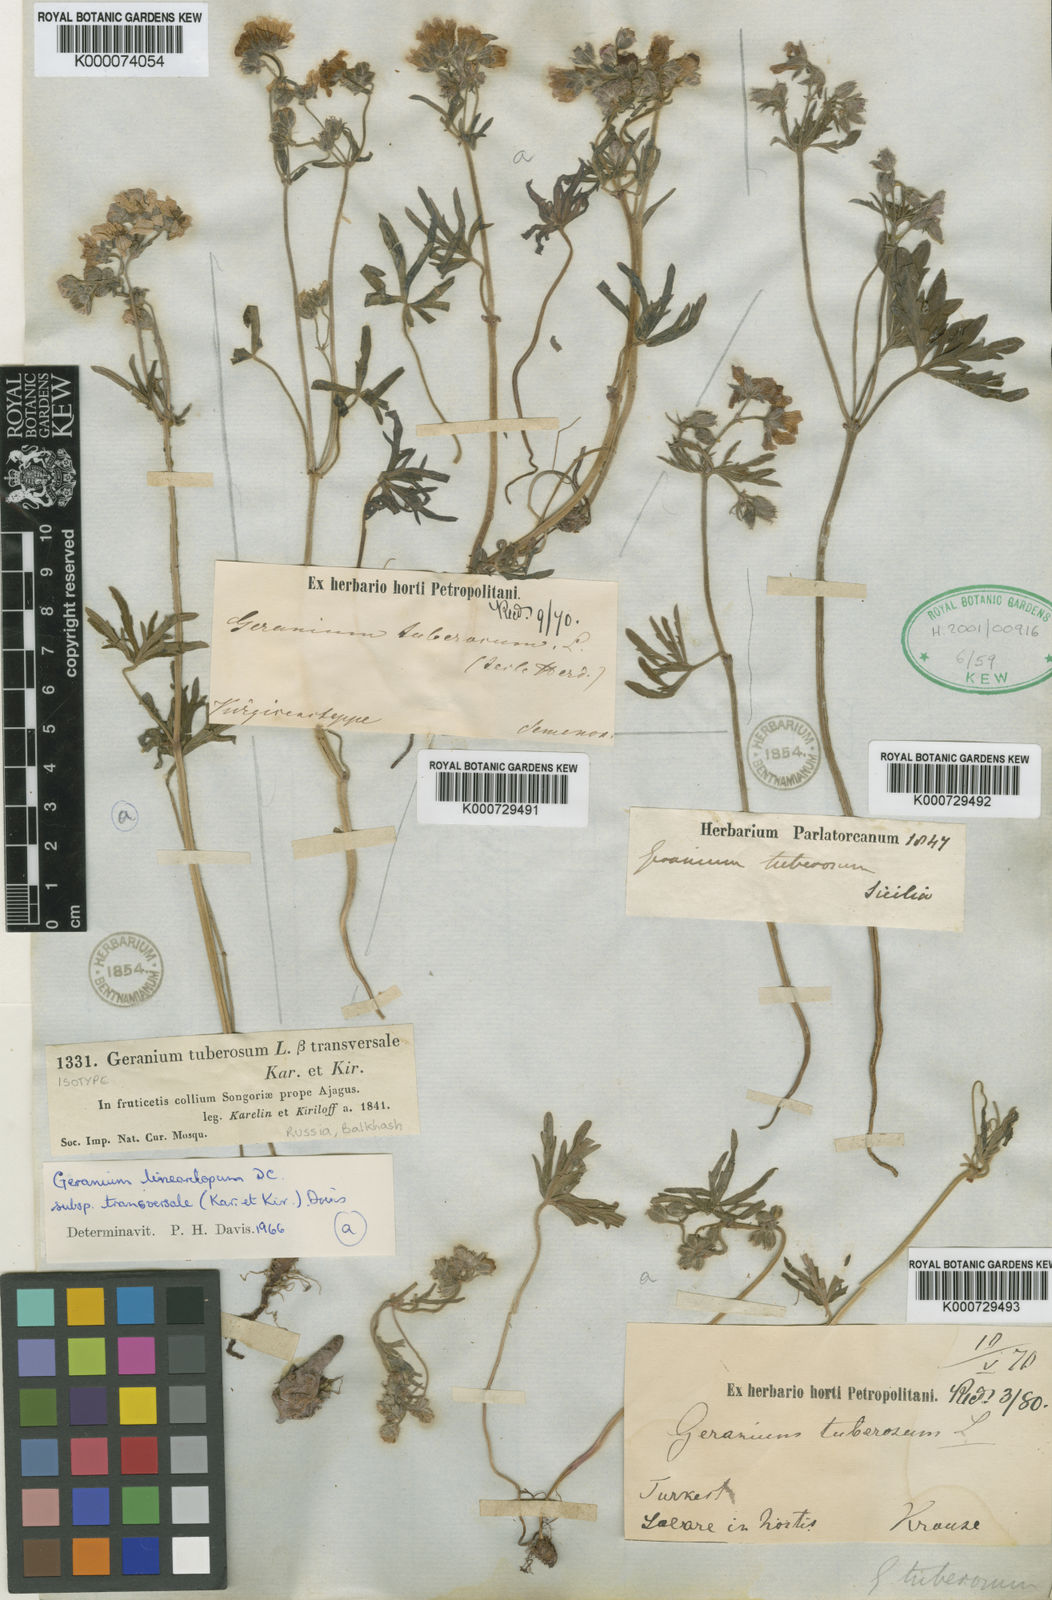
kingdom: Plantae
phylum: Tracheophyta
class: Magnoliopsida
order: Geraniales
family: Geraniaceae
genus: Geranium
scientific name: Geranium linearilobum
